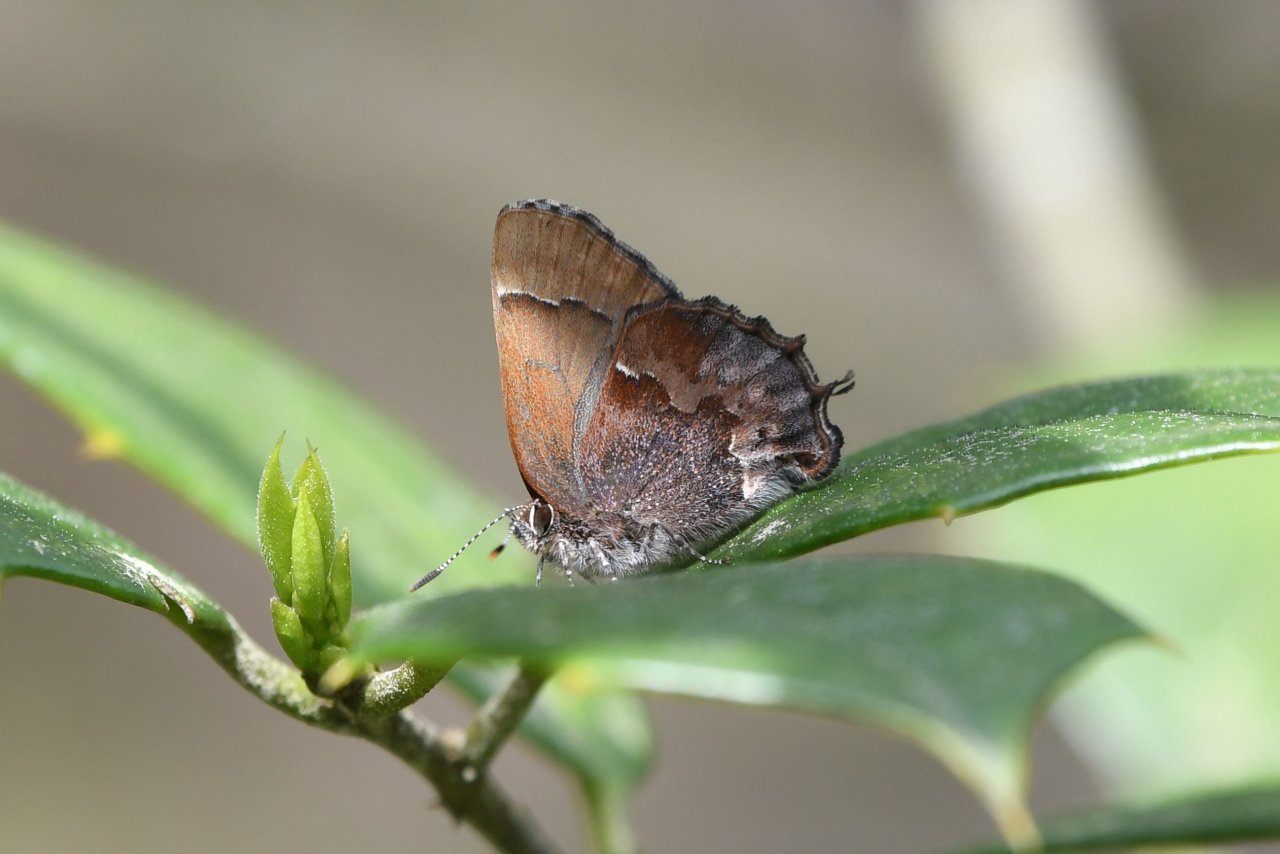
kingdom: Animalia
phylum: Arthropoda
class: Insecta
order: Lepidoptera
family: Lycaenidae
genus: Incisalia
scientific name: Incisalia henrici
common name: Henry's Elfin
